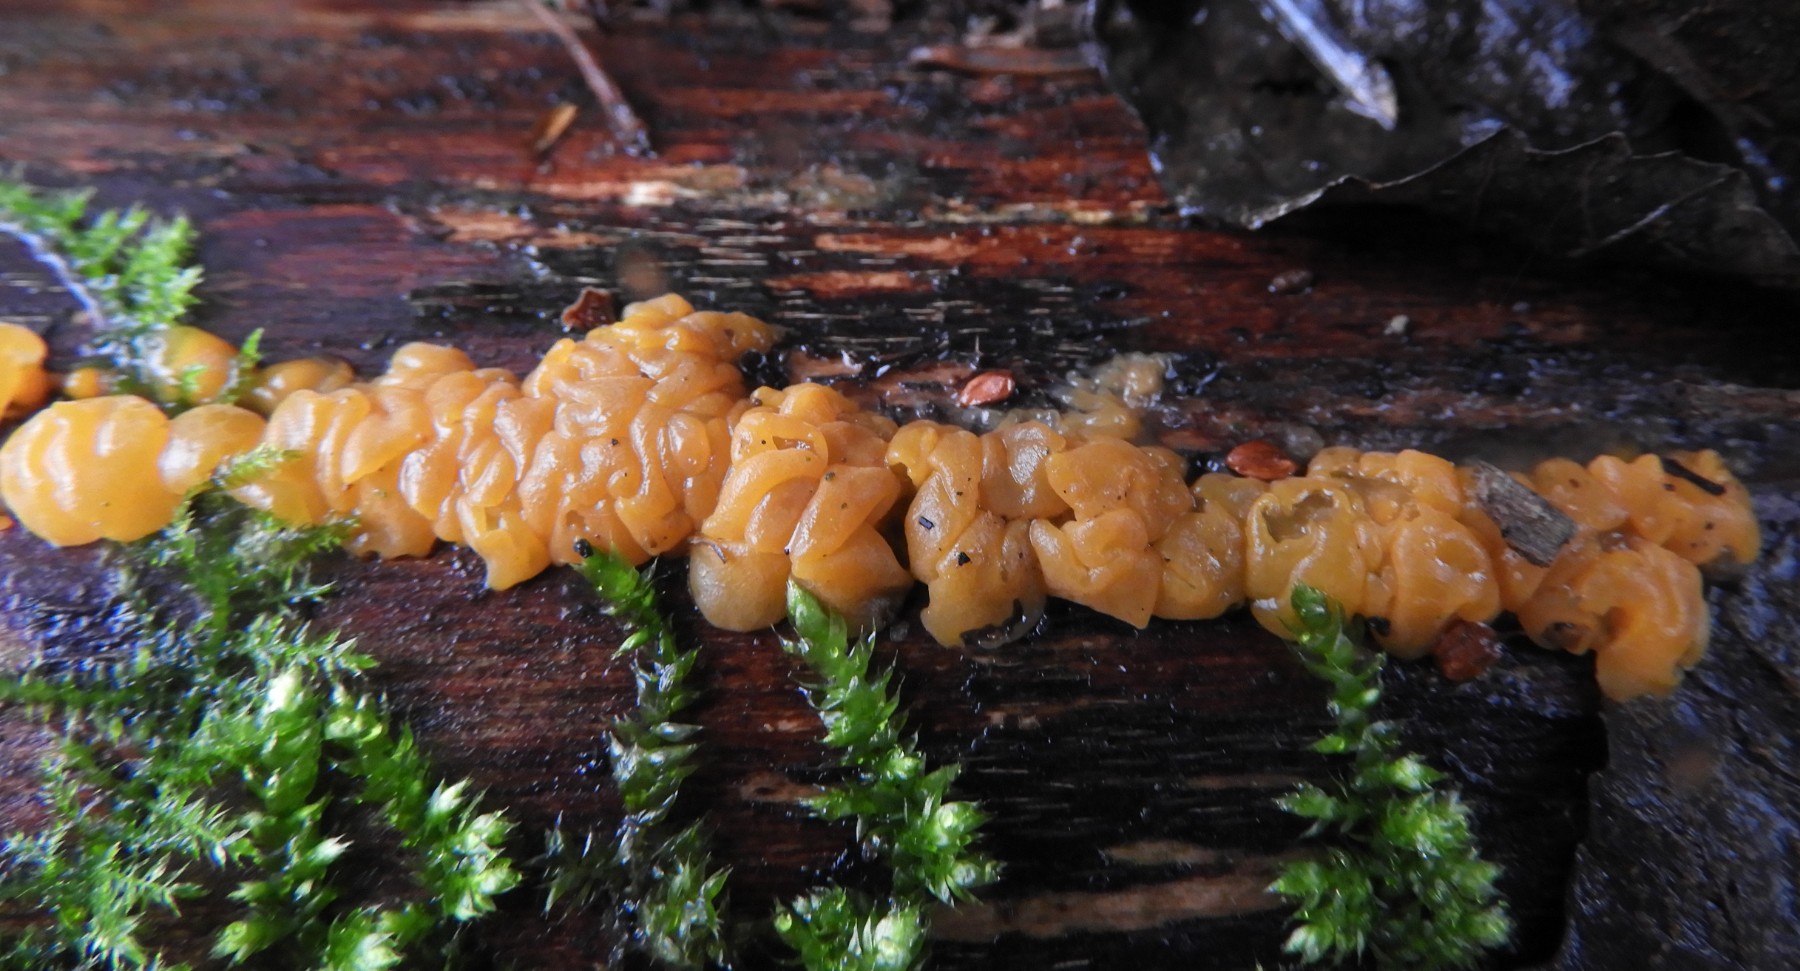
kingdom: Fungi
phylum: Basidiomycota
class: Dacrymycetes
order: Dacrymycetales
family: Dacrymycetaceae
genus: Dacrymyces
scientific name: Dacrymyces lacrymalis
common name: rynket tåresvamp
